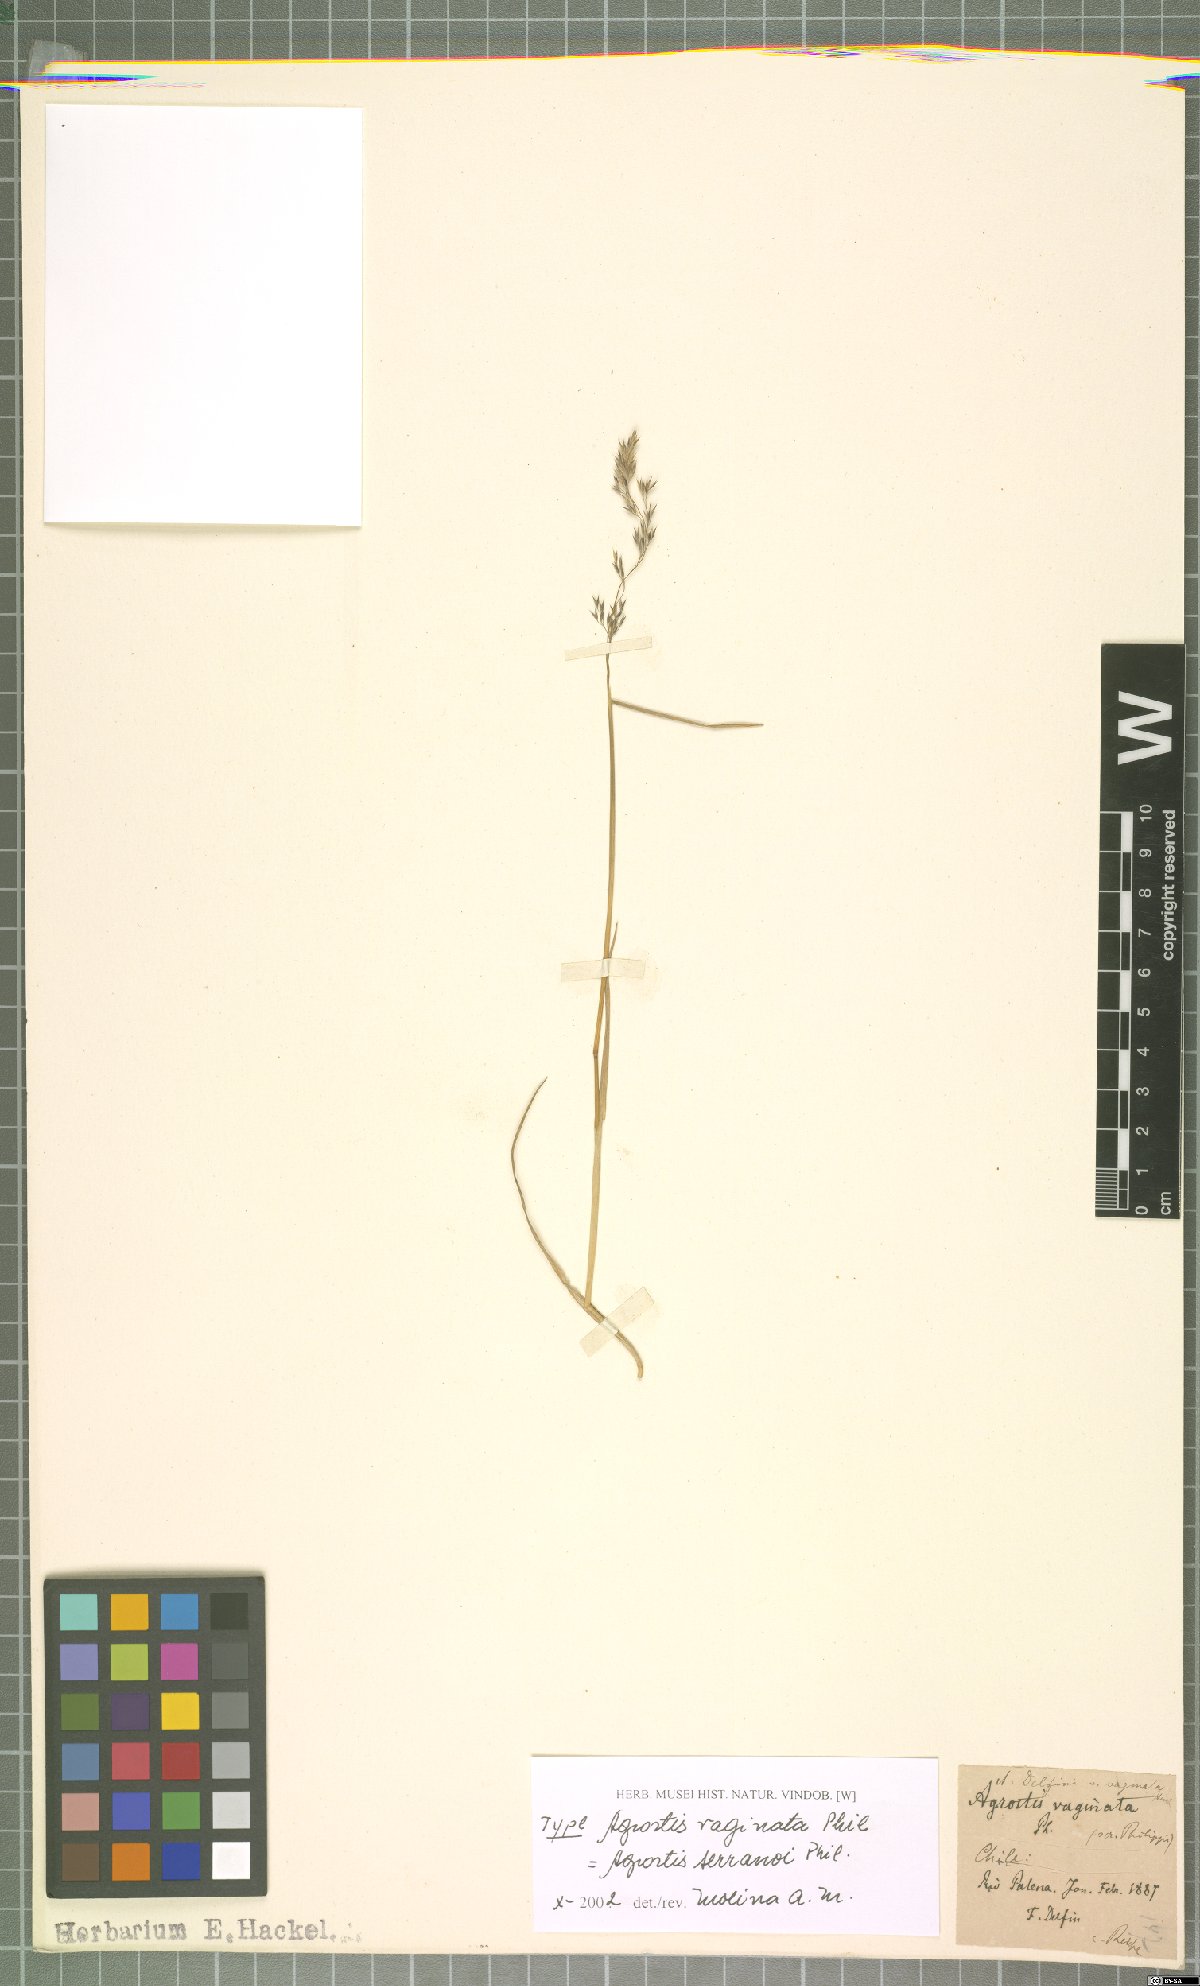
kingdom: Plantae
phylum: Tracheophyta
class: Liliopsida
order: Poales
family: Poaceae
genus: Agrostis
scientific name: Agrostis serranoi
